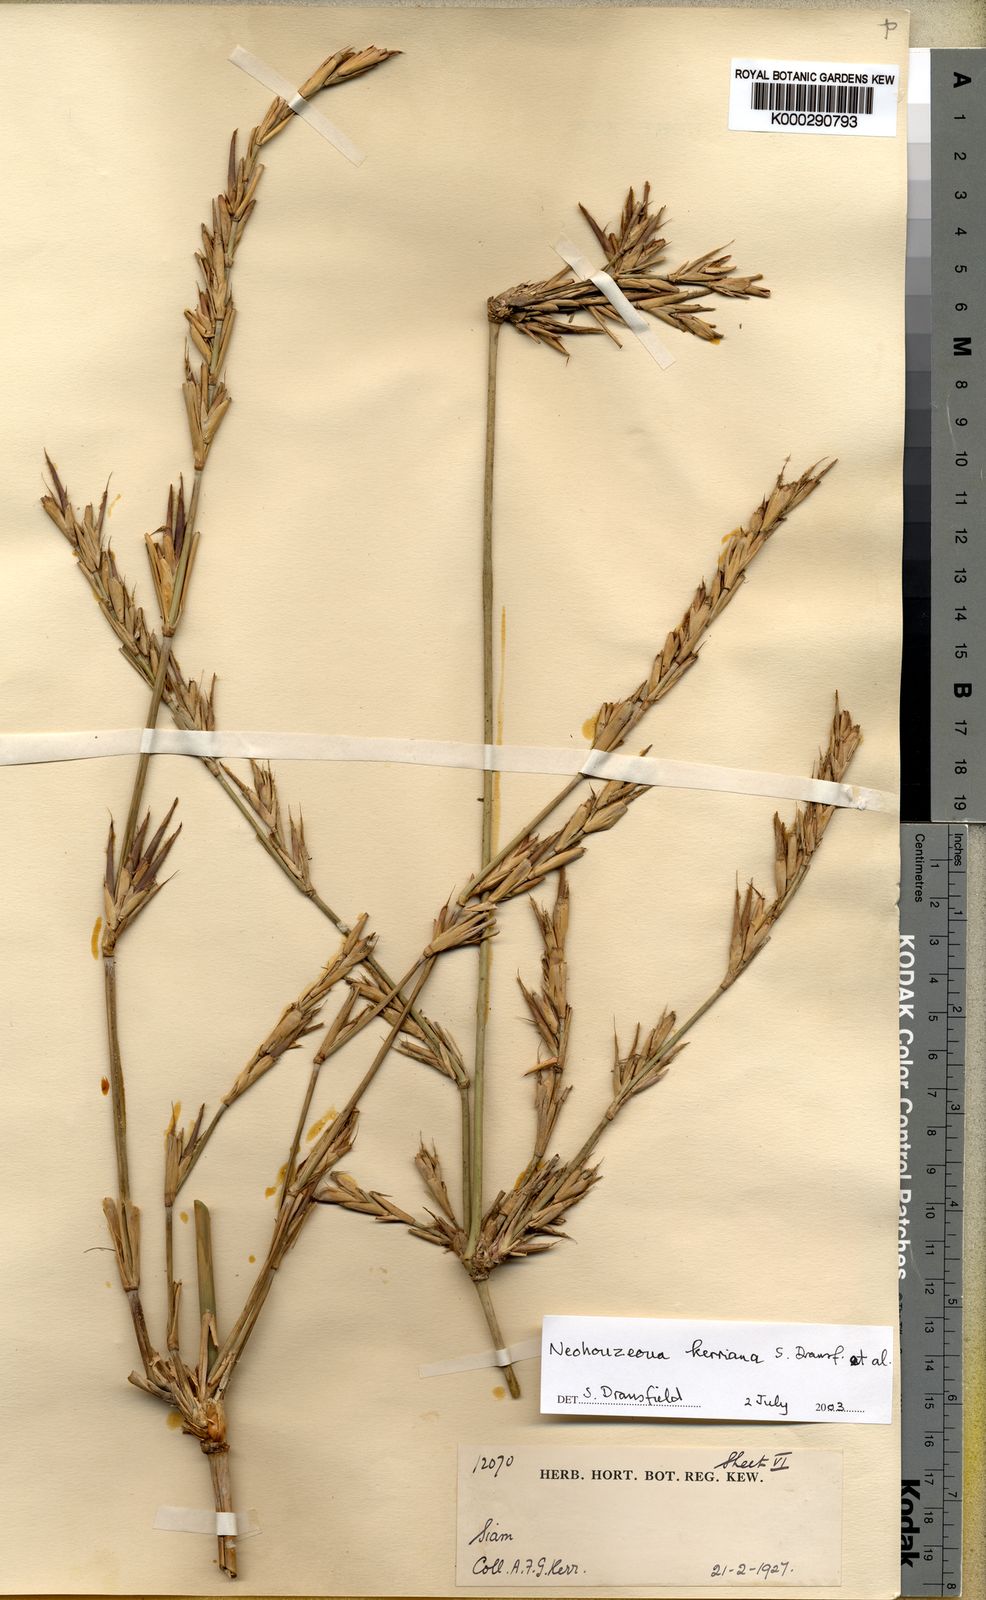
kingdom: Plantae
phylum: Tracheophyta
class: Liliopsida
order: Poales
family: Poaceae
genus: Schizostachyum
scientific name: Schizostachyum
